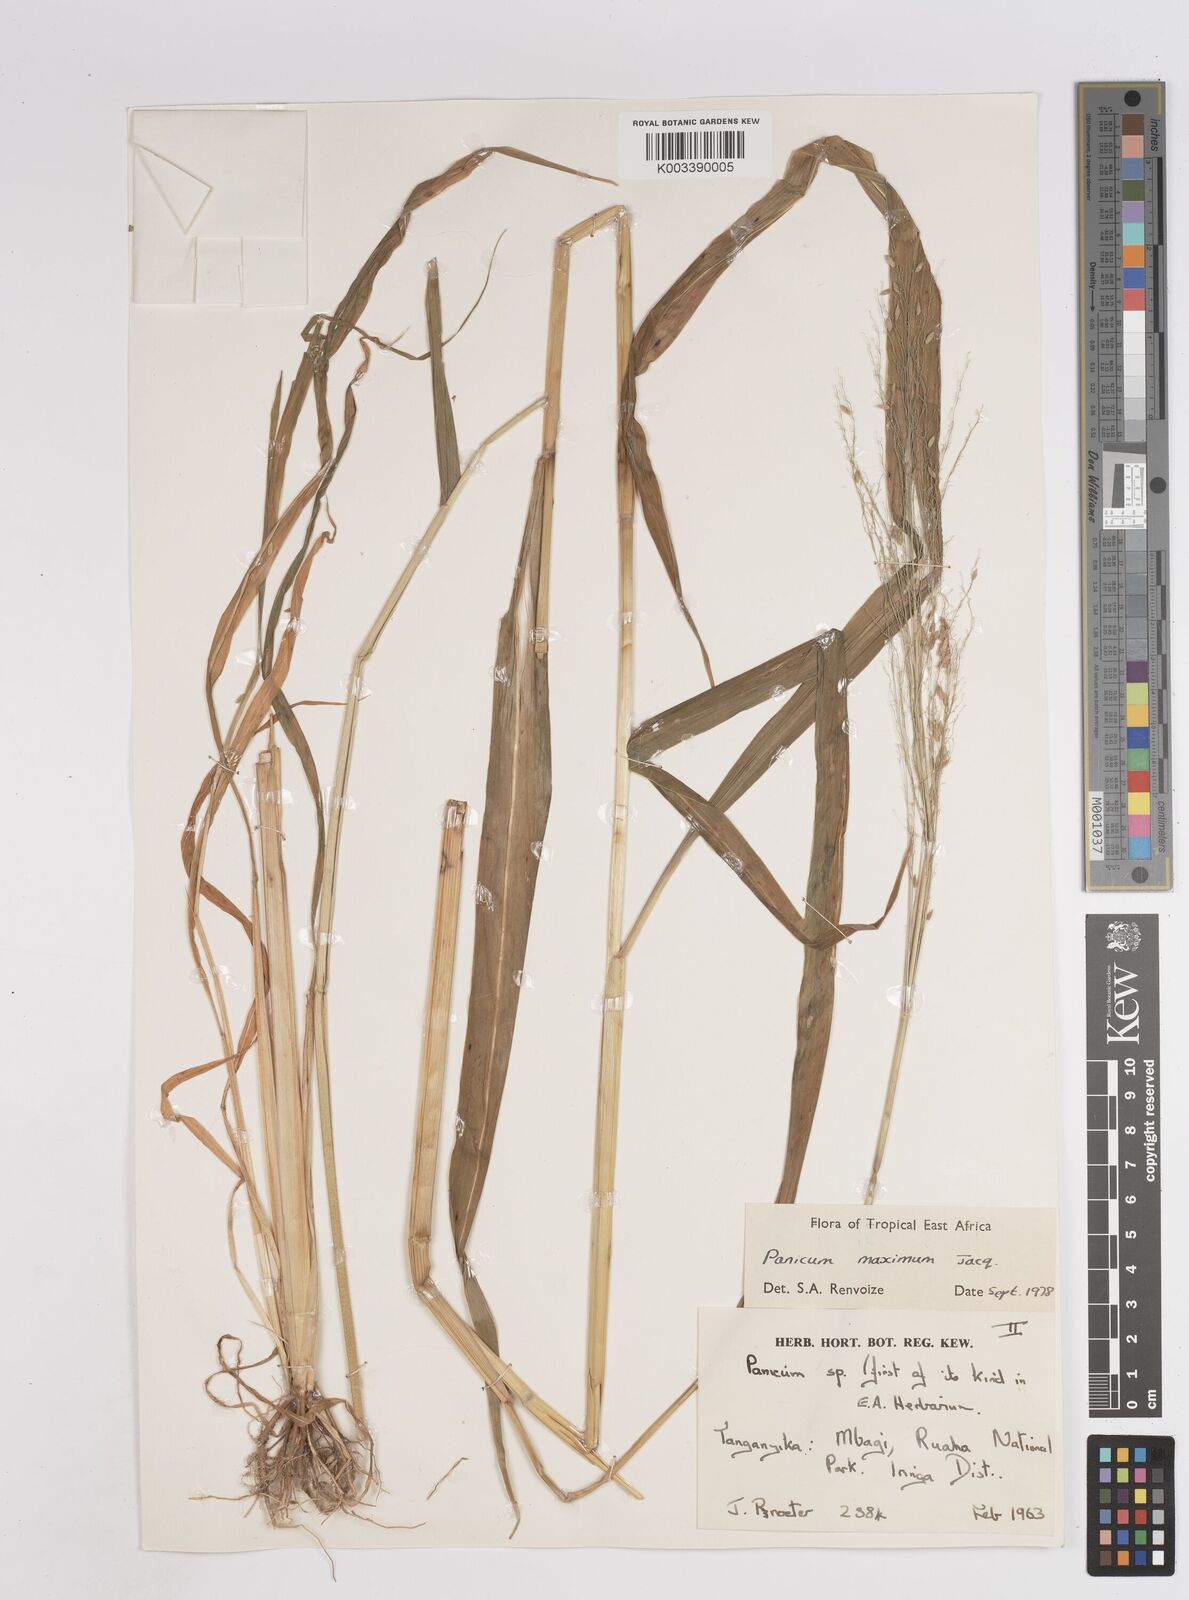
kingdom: Plantae
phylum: Tracheophyta
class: Liliopsida
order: Poales
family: Poaceae
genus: Megathyrsus
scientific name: Megathyrsus maximus
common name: Guineagrass
